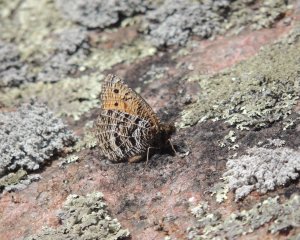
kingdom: Animalia
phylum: Arthropoda
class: Insecta
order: Lepidoptera
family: Nymphalidae
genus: Oeneis
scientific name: Oeneis chryxus
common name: Chryxus Arctic
